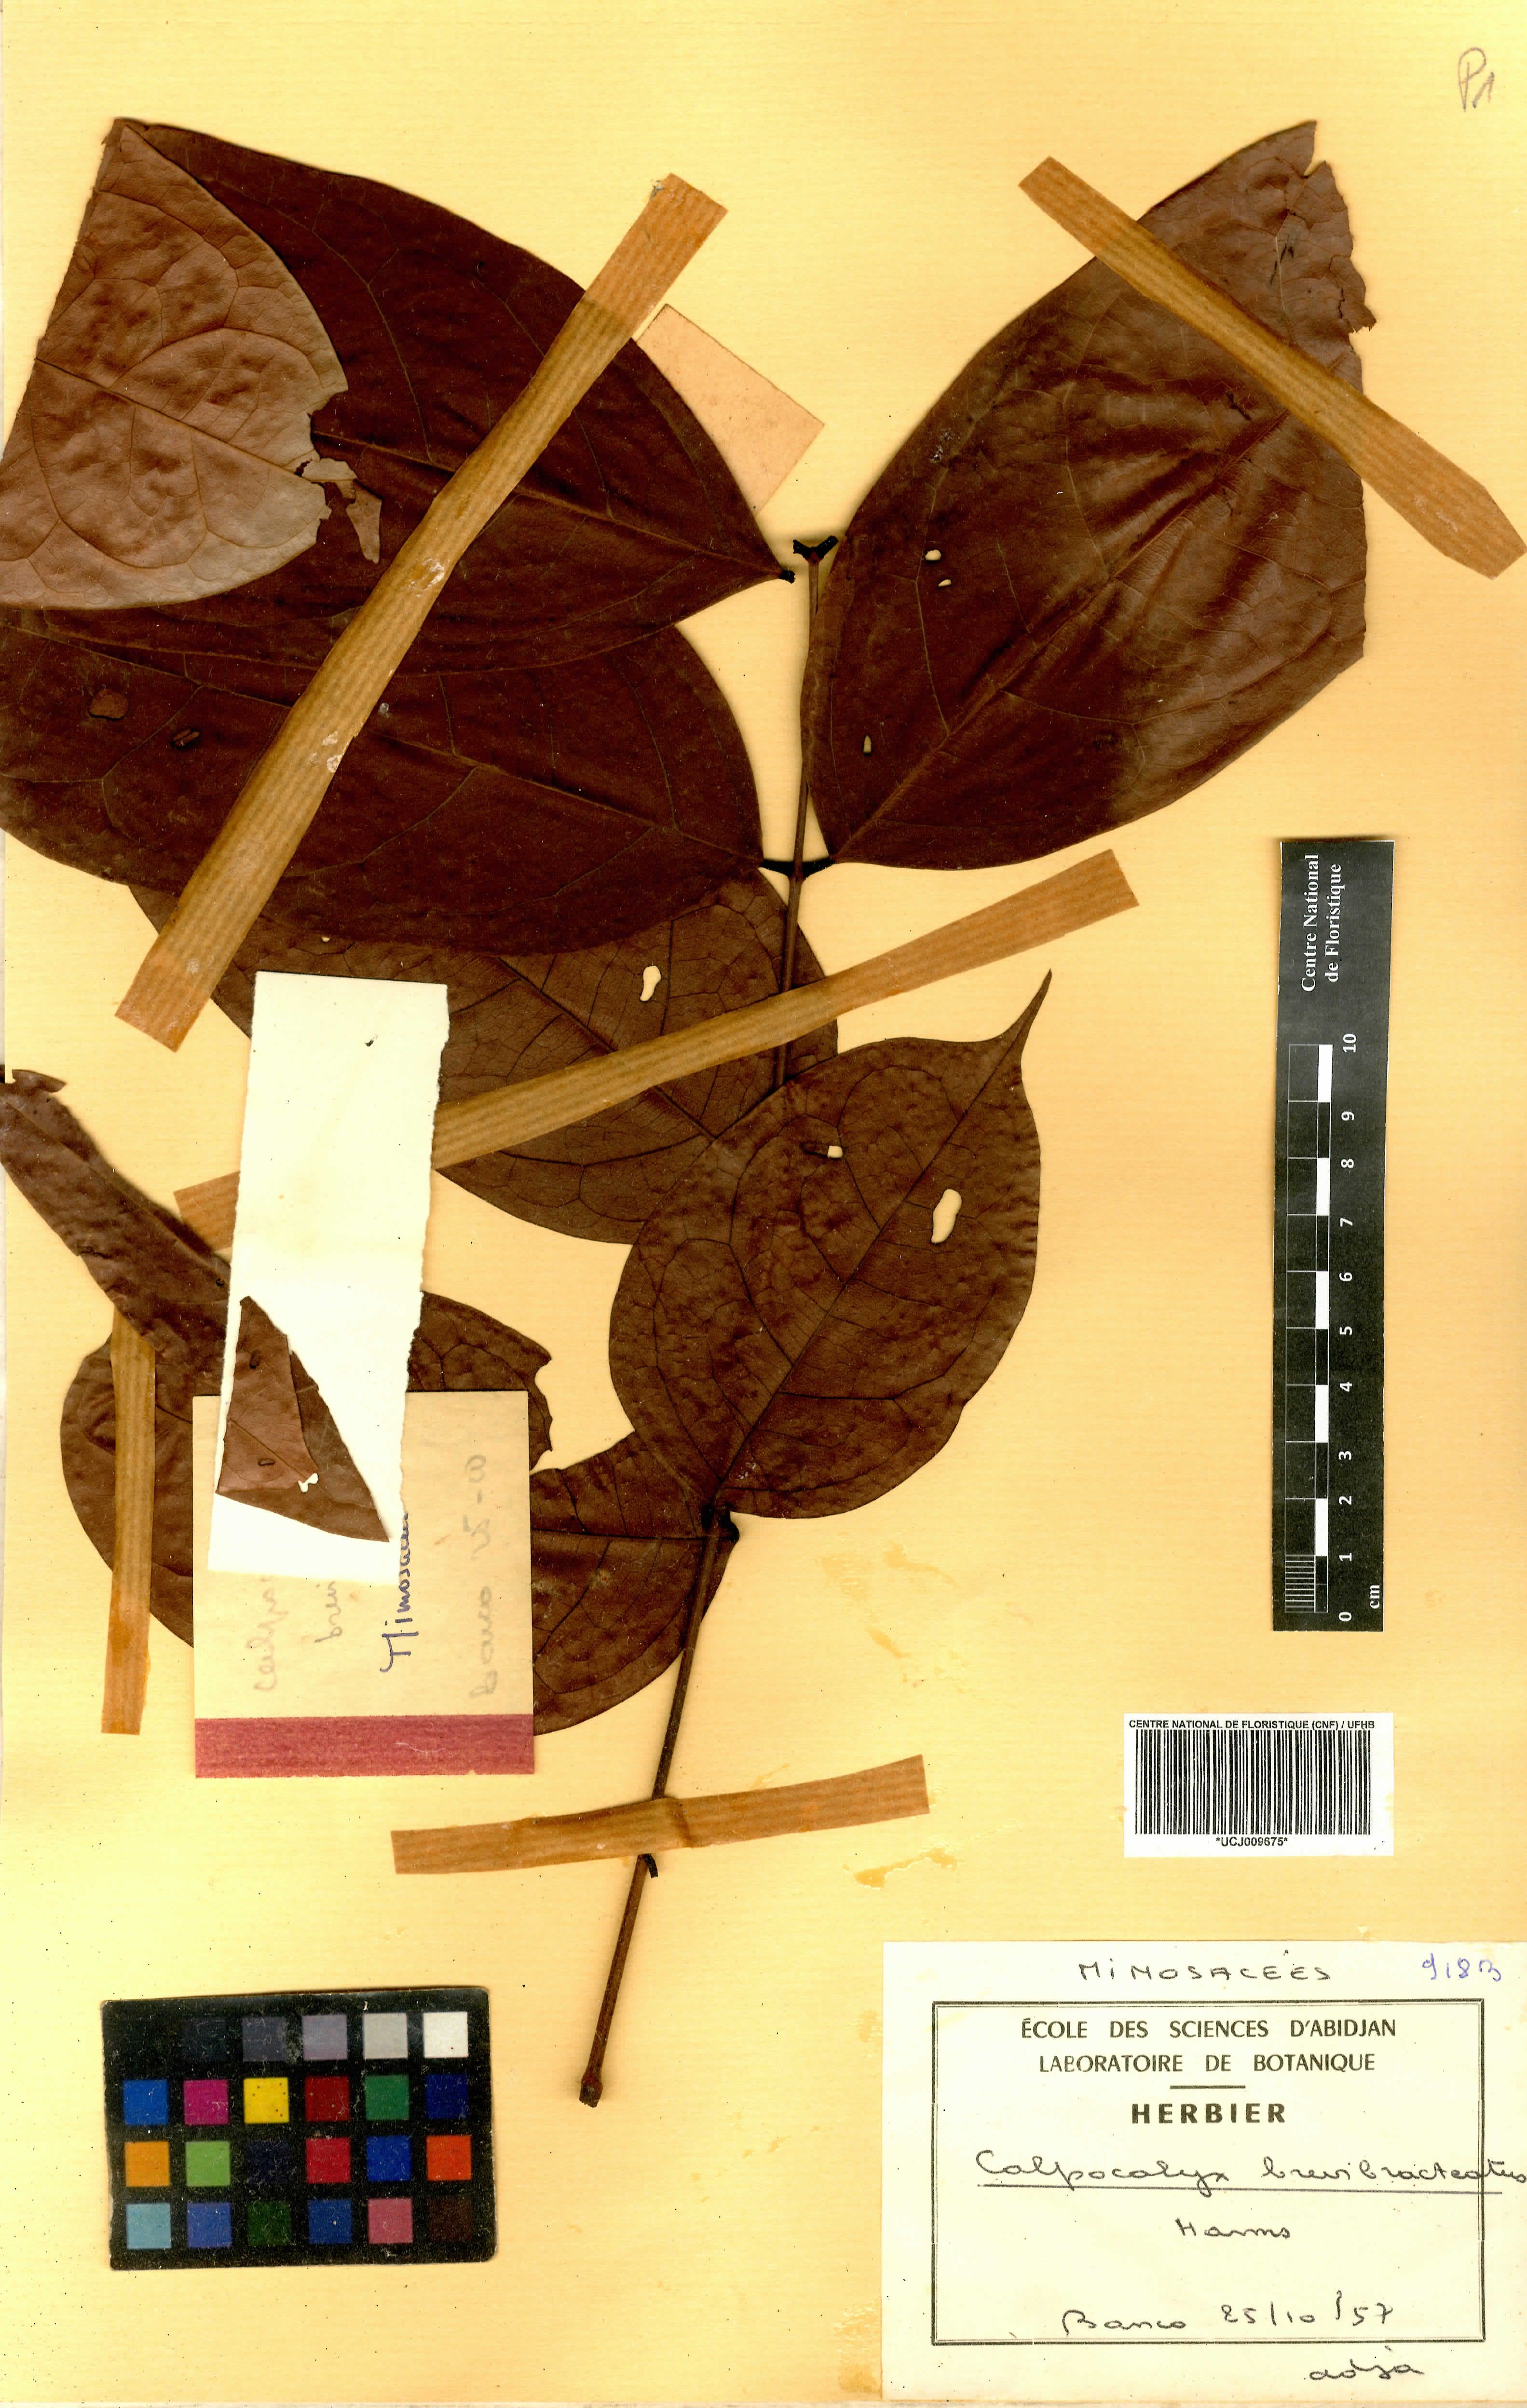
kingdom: Plantae
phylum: Tracheophyta
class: Magnoliopsida
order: Fabales
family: Fabaceae
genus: Calpocalyx
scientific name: Calpocalyx brevibracteatus
